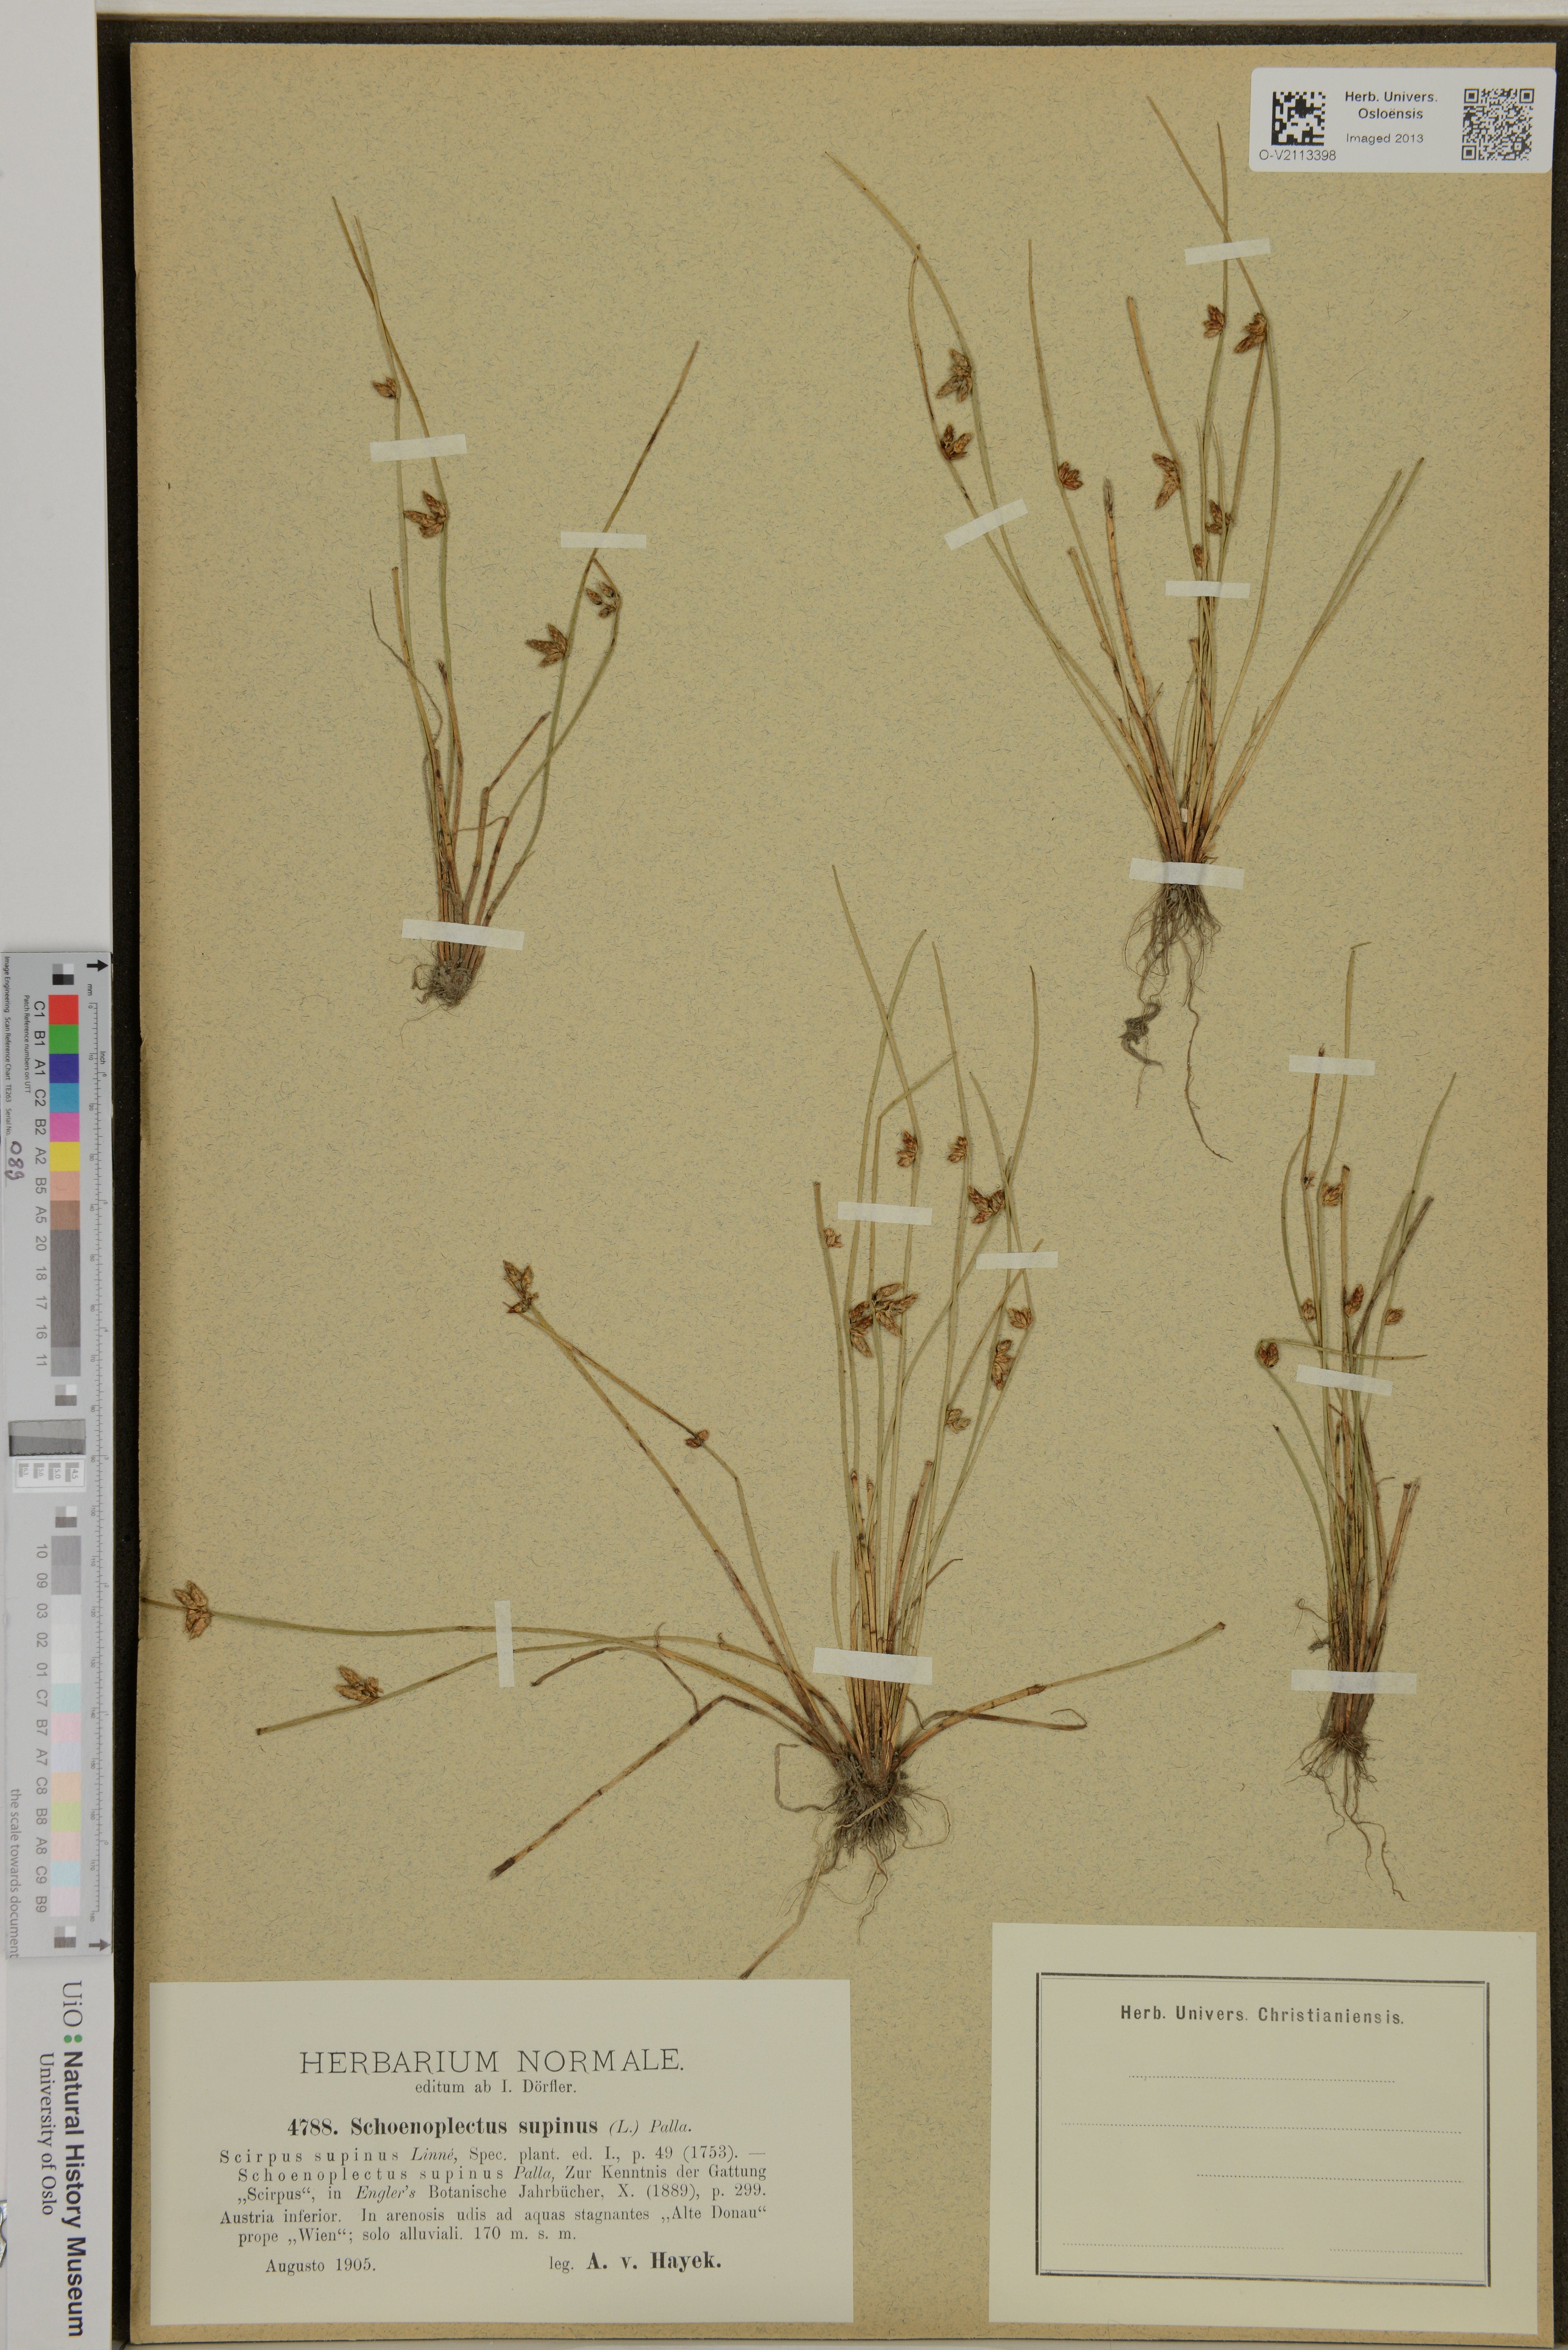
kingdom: Plantae
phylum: Tracheophyta
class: Liliopsida
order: Poales
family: Cyperaceae
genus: Schoenoplectiella
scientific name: Schoenoplectiella supina
